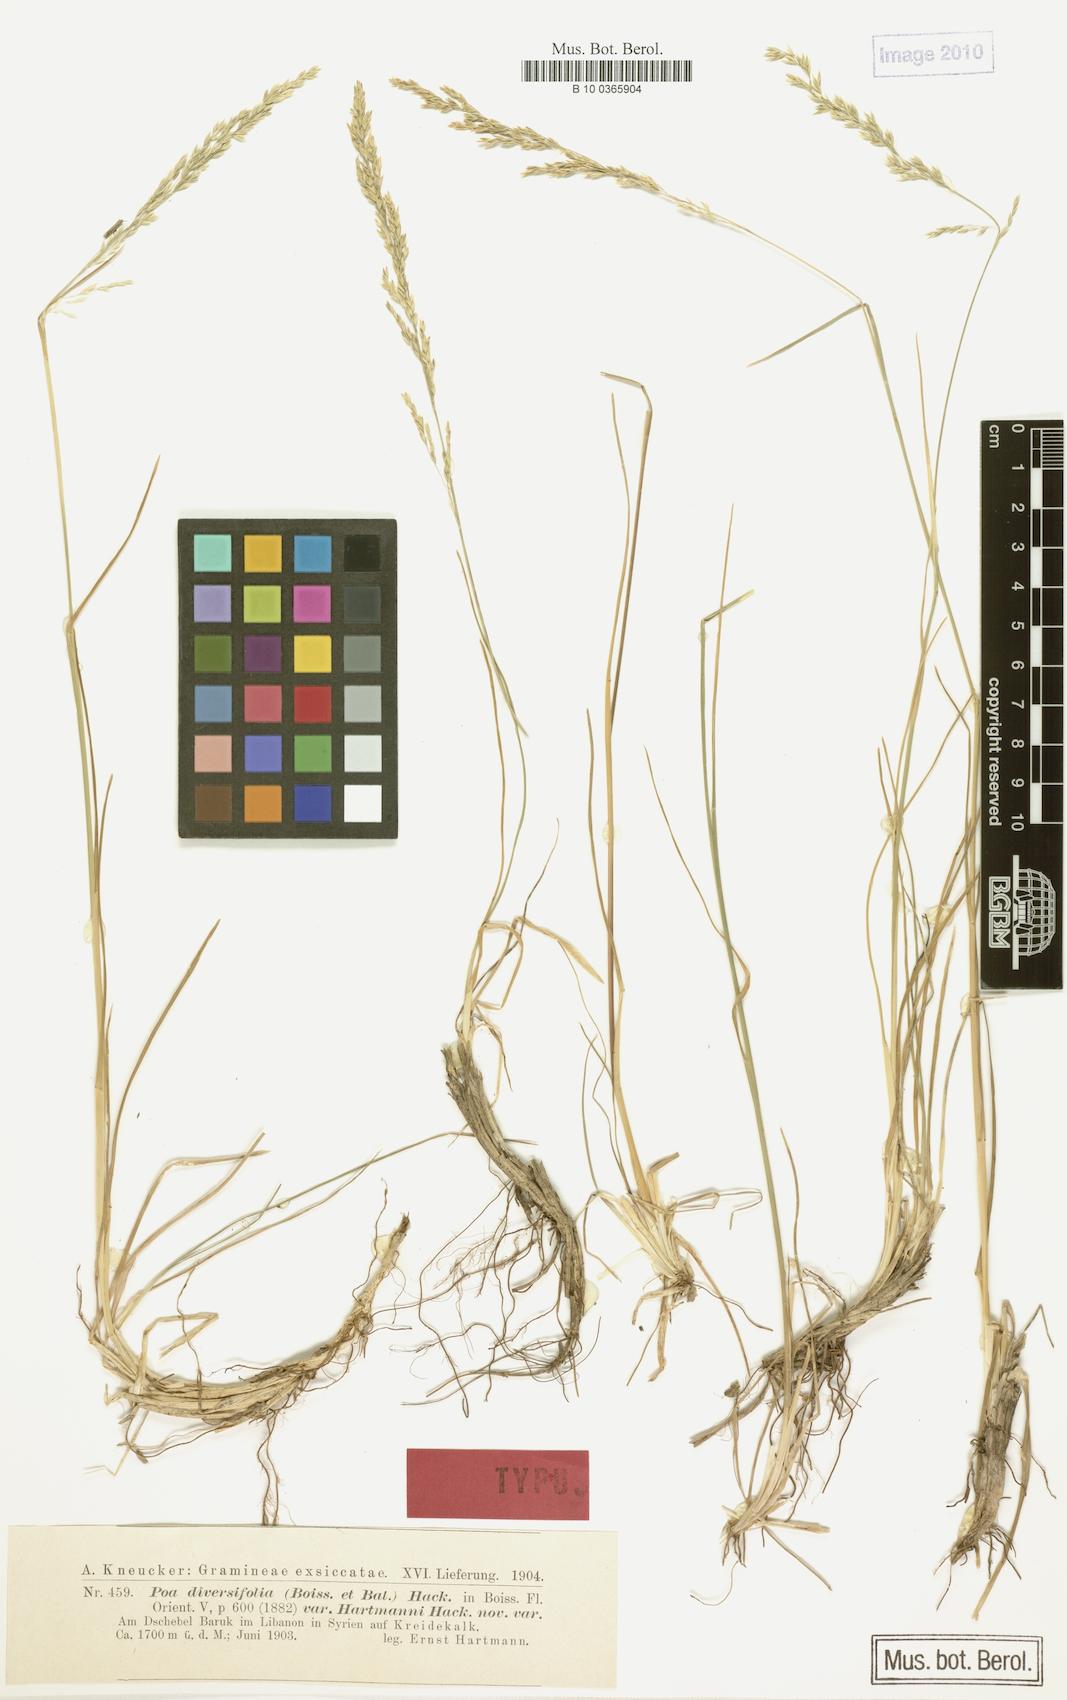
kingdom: Plantae
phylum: Tracheophyta
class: Liliopsida
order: Poales
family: Poaceae
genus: Poa
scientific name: Poa diversifolia
